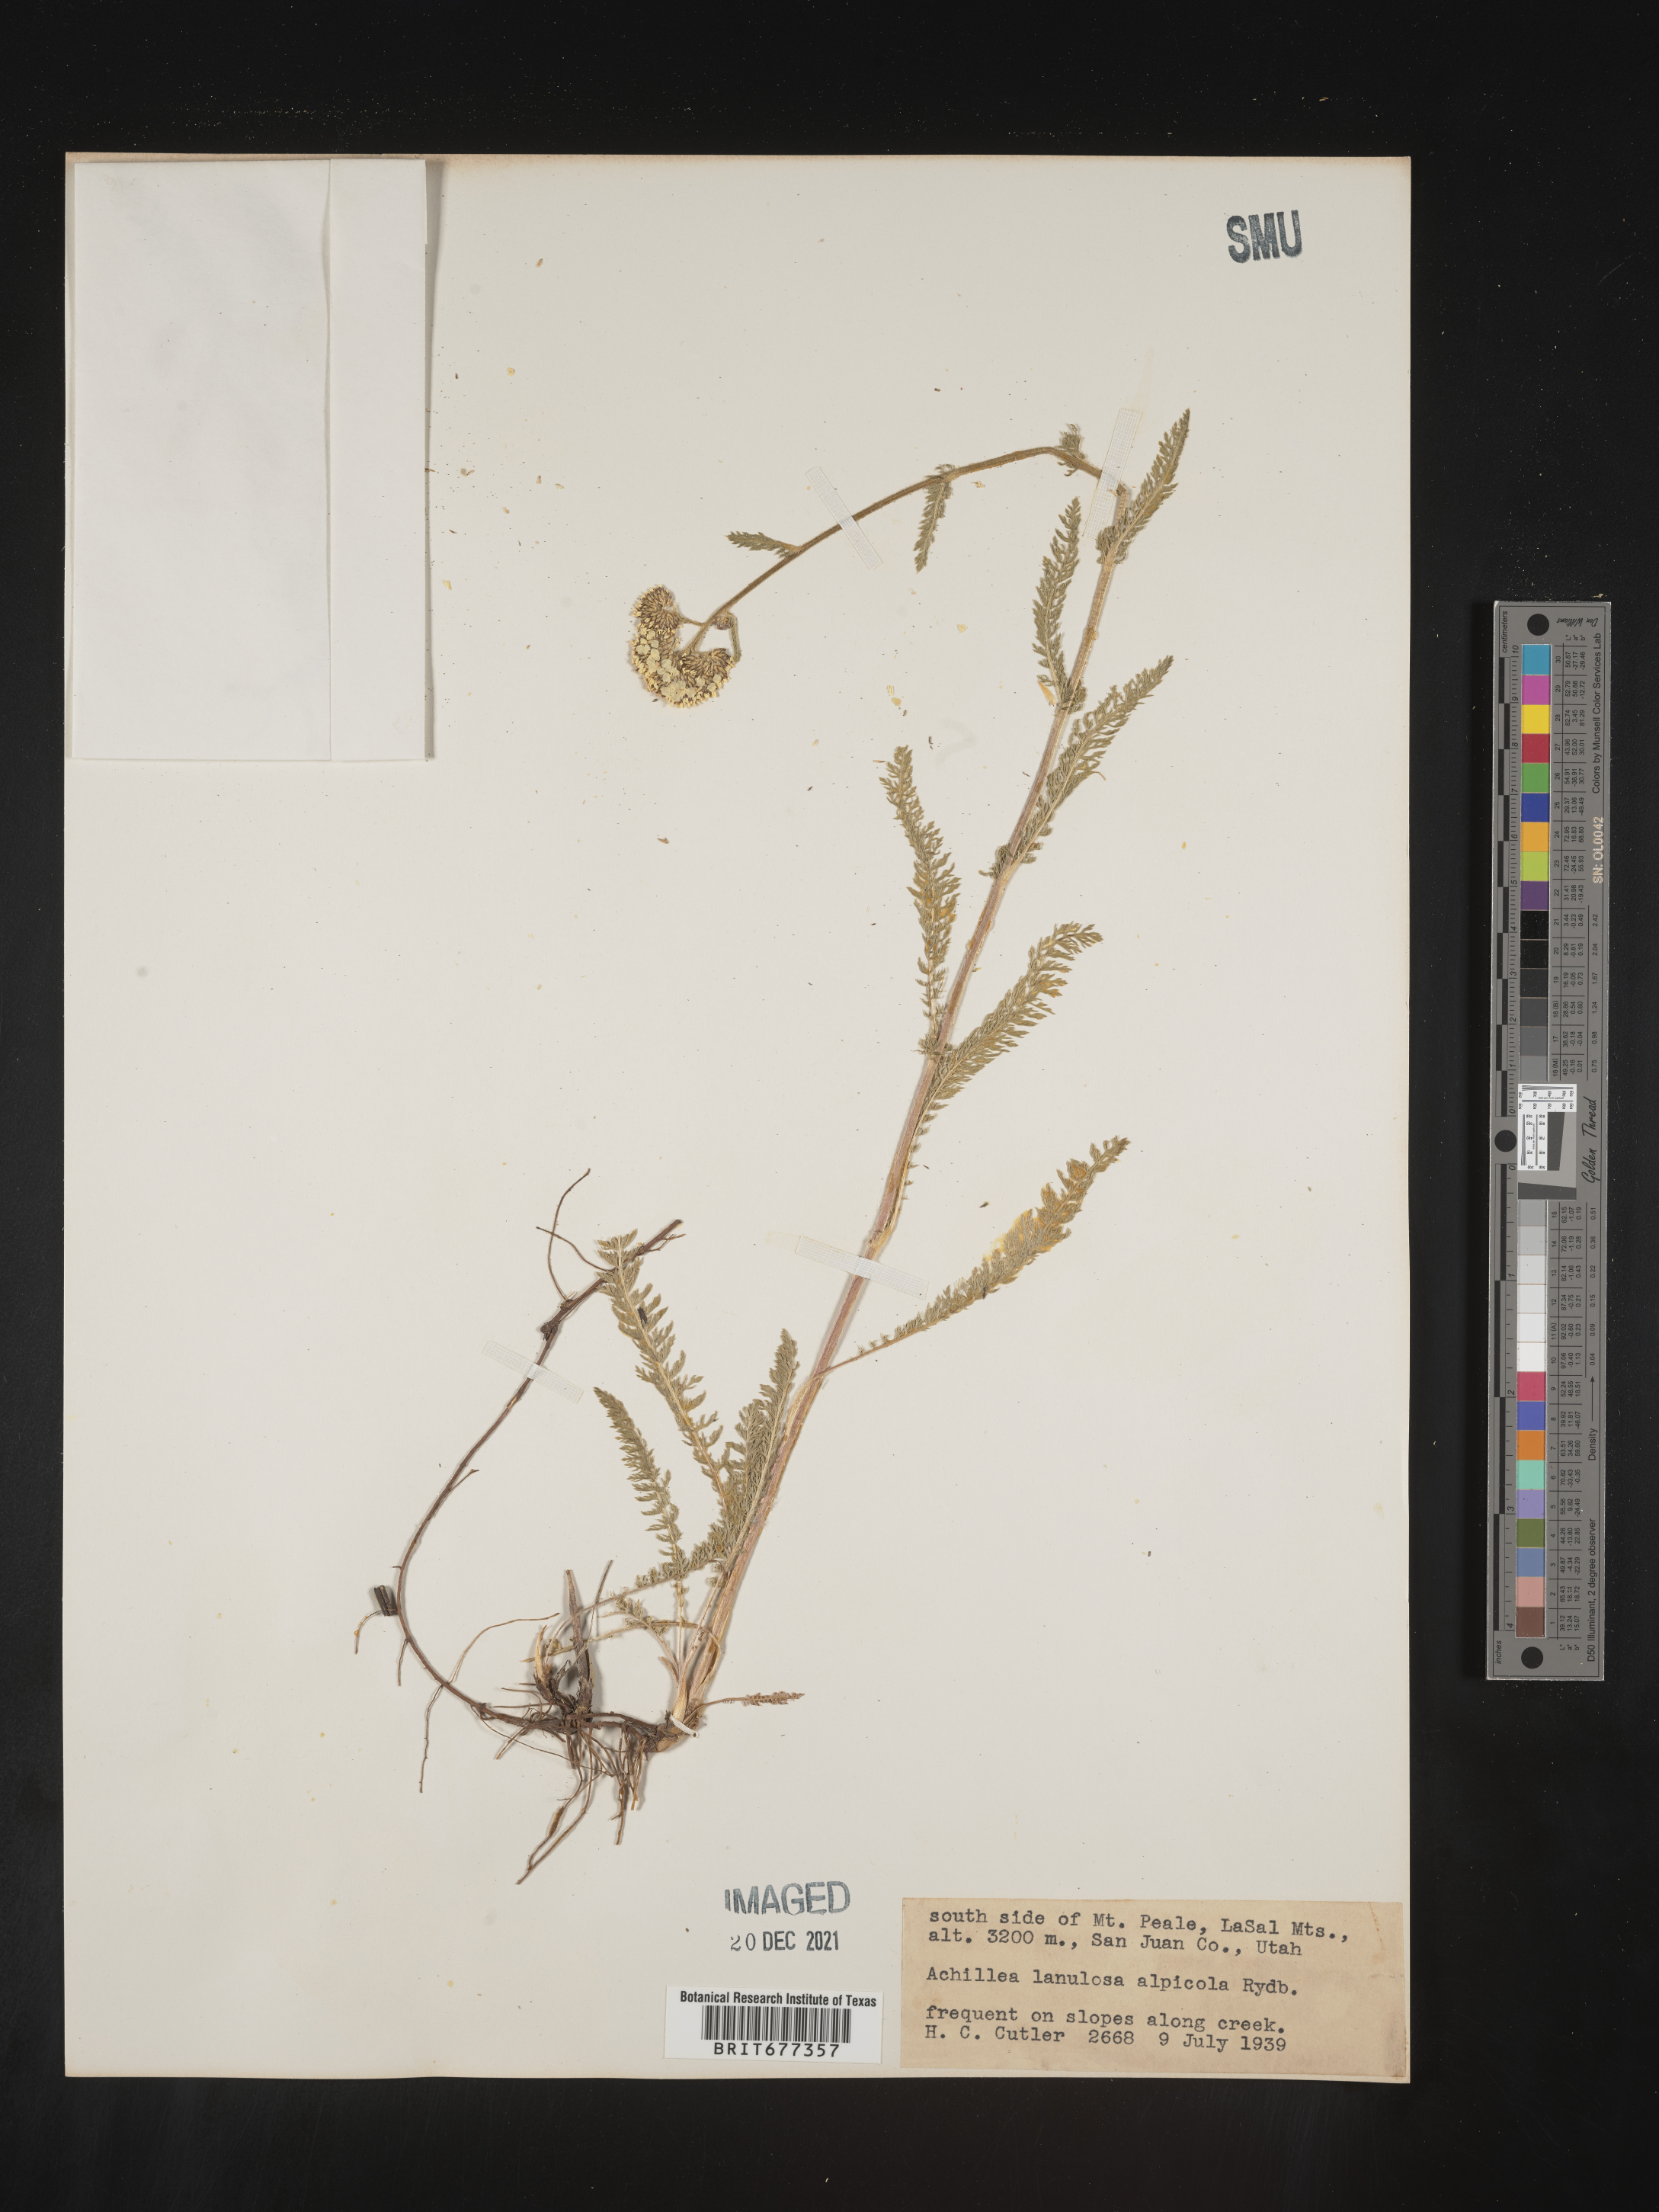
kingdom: Plantae
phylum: Tracheophyta
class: Magnoliopsida
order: Asterales
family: Asteraceae
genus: Achillea
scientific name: Achillea millefolium
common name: Yarrow
